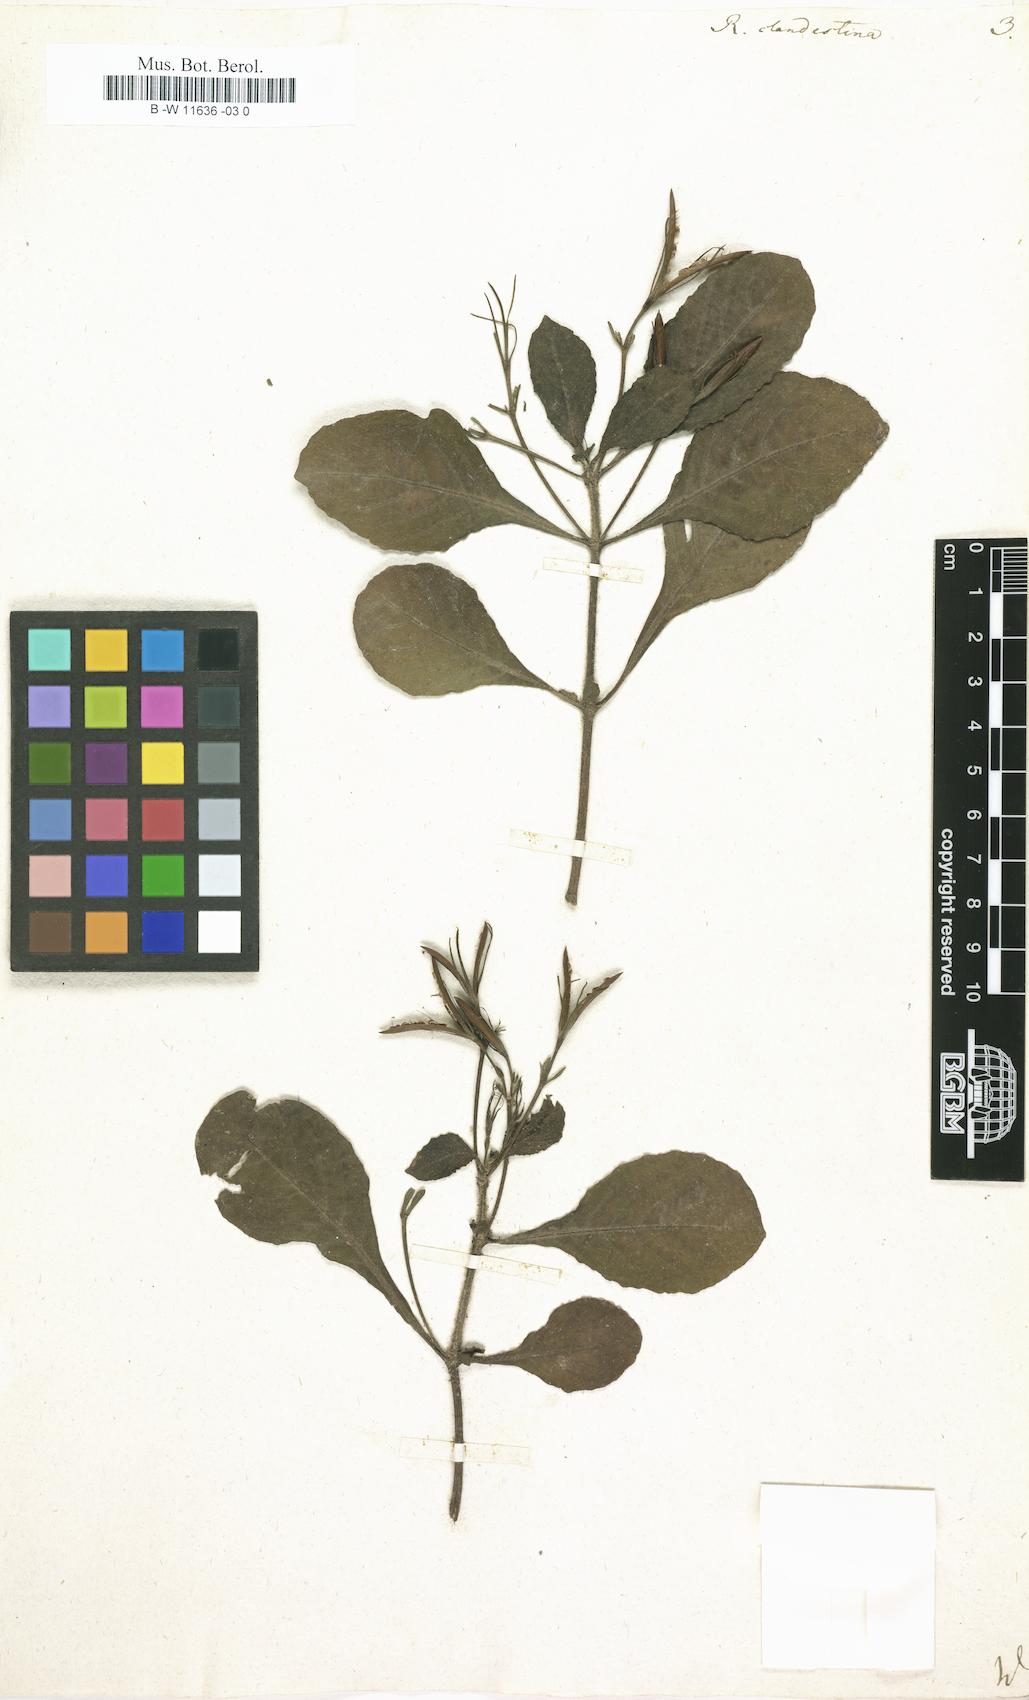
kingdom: Plantae
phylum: Tracheophyta
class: Magnoliopsida
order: Lamiales
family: Acanthaceae
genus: Ruellia
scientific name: Ruellia tuberosa
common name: Devil's bit
